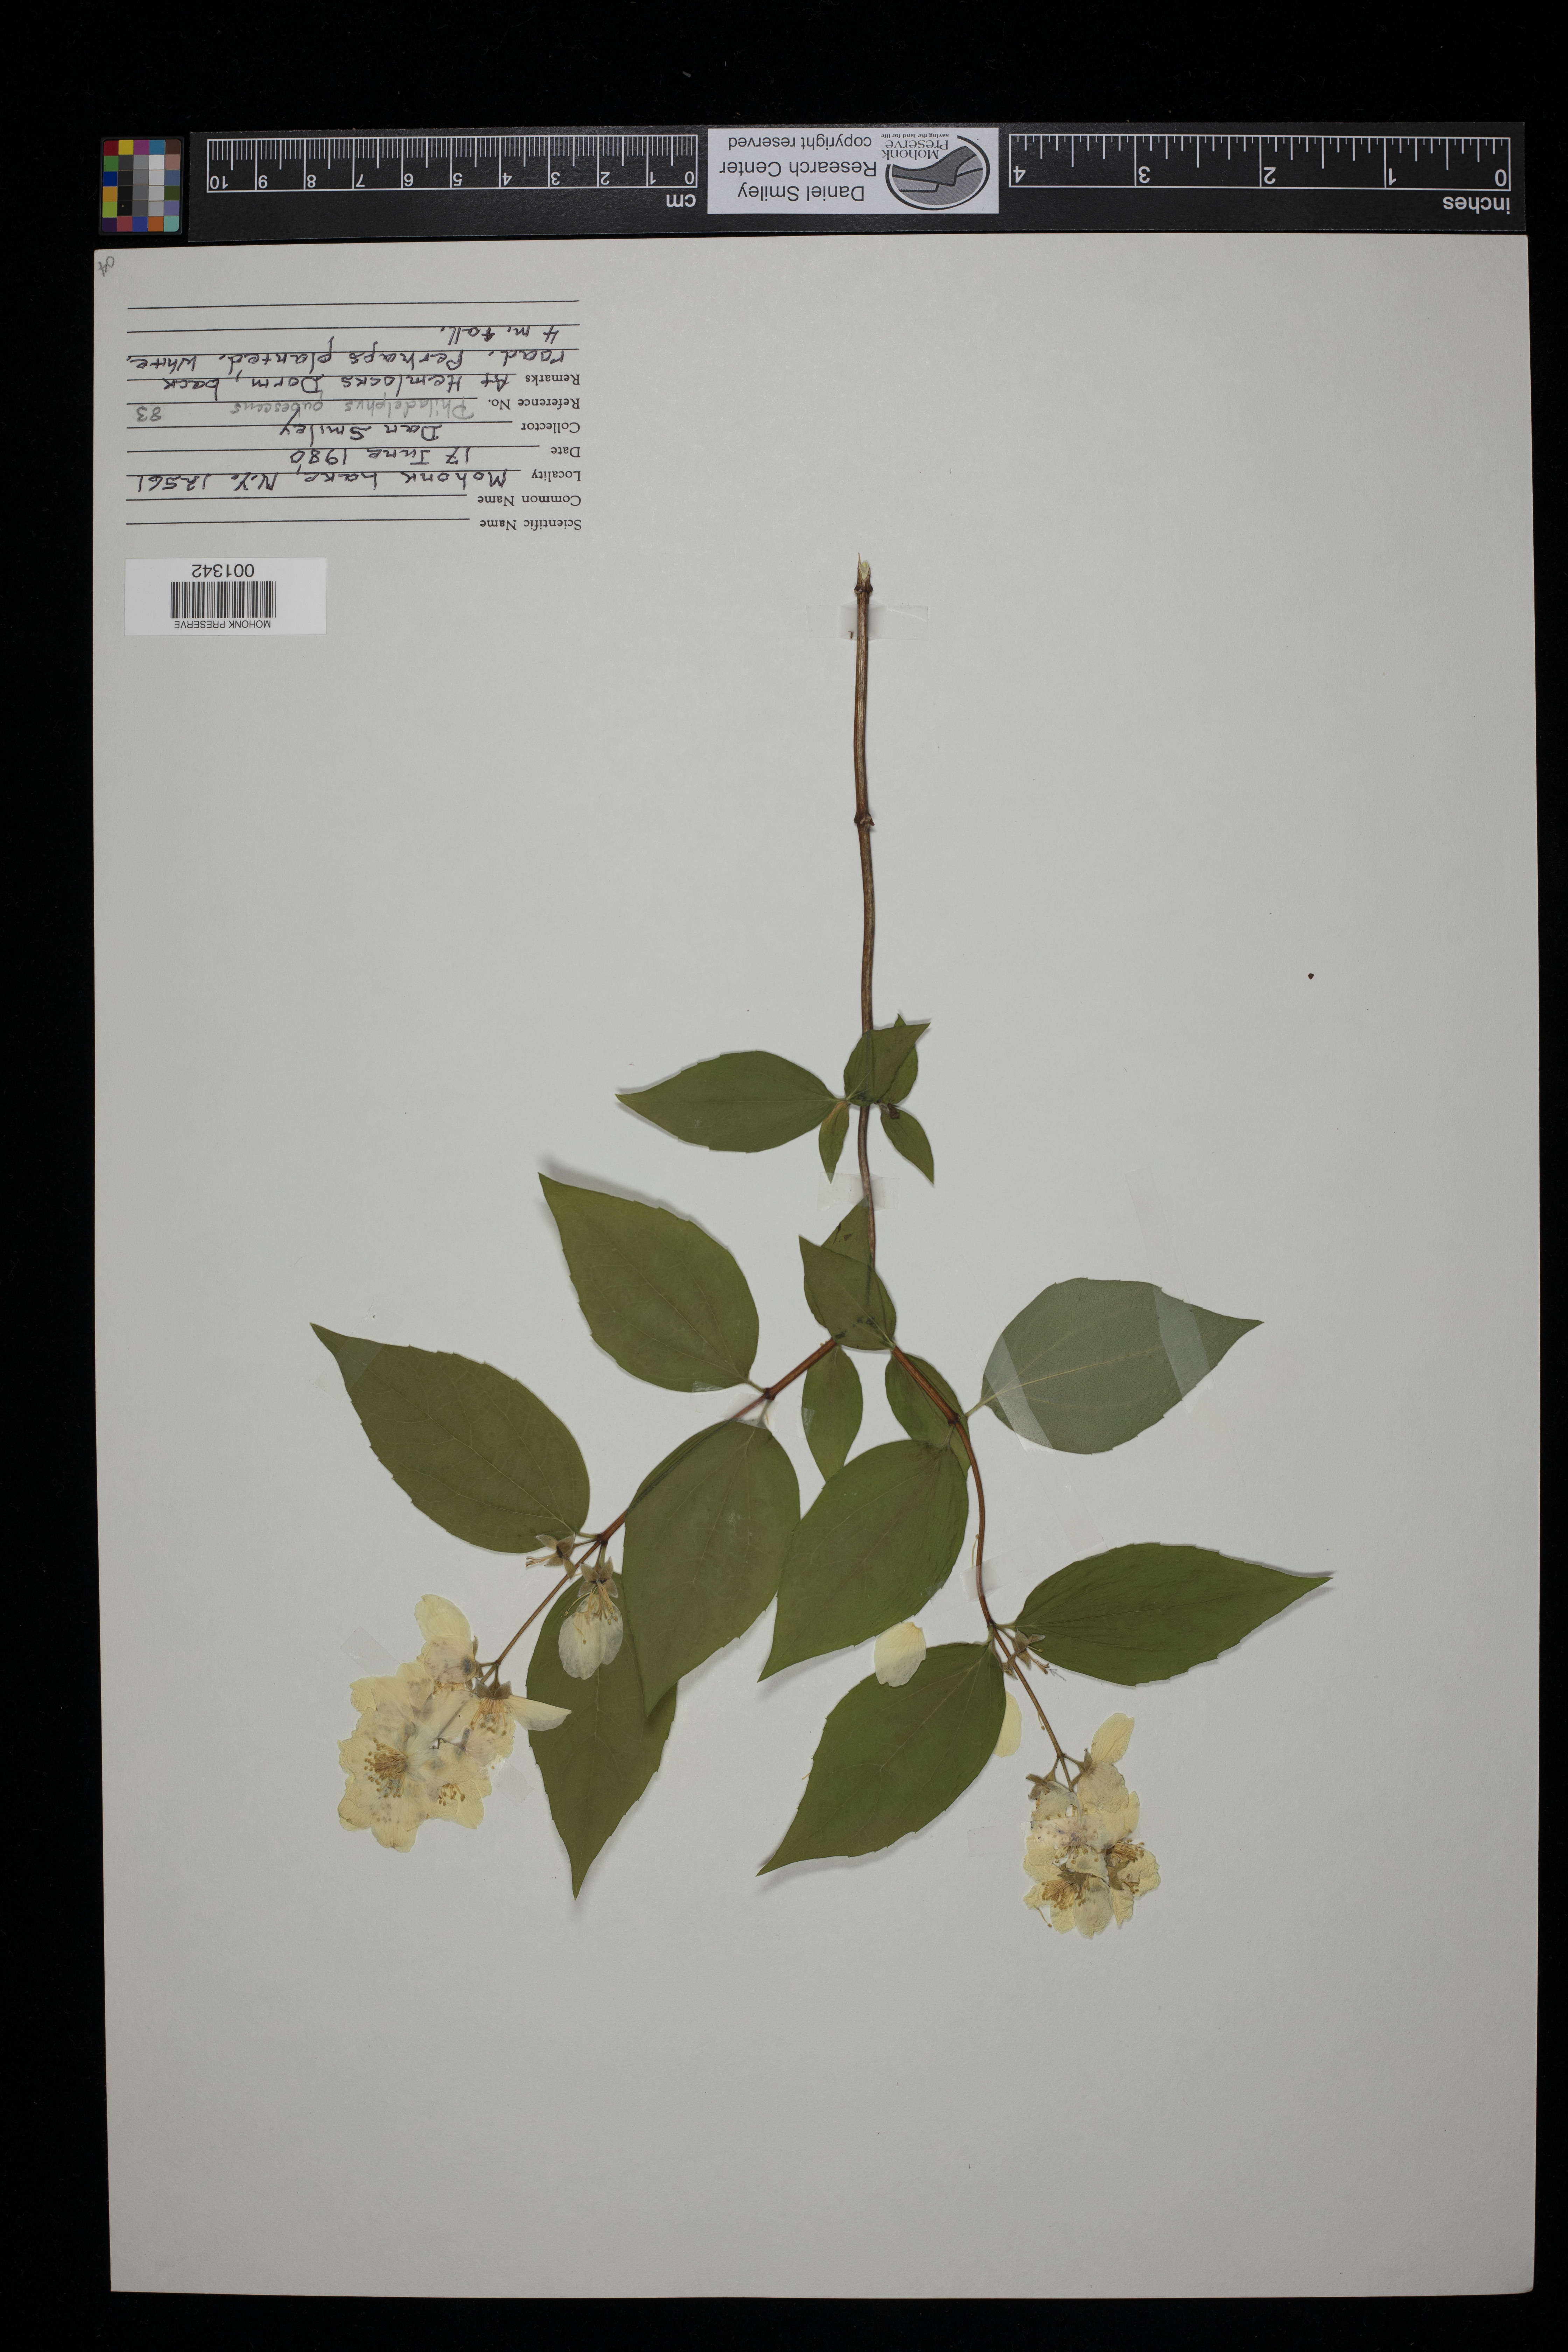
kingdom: Plantae
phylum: Tracheophyta
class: Magnoliopsida
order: Cornales
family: Hydrangeaceae
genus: Philadelphus
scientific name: Philadelphus pubescens
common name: Broadleaf mock orange
